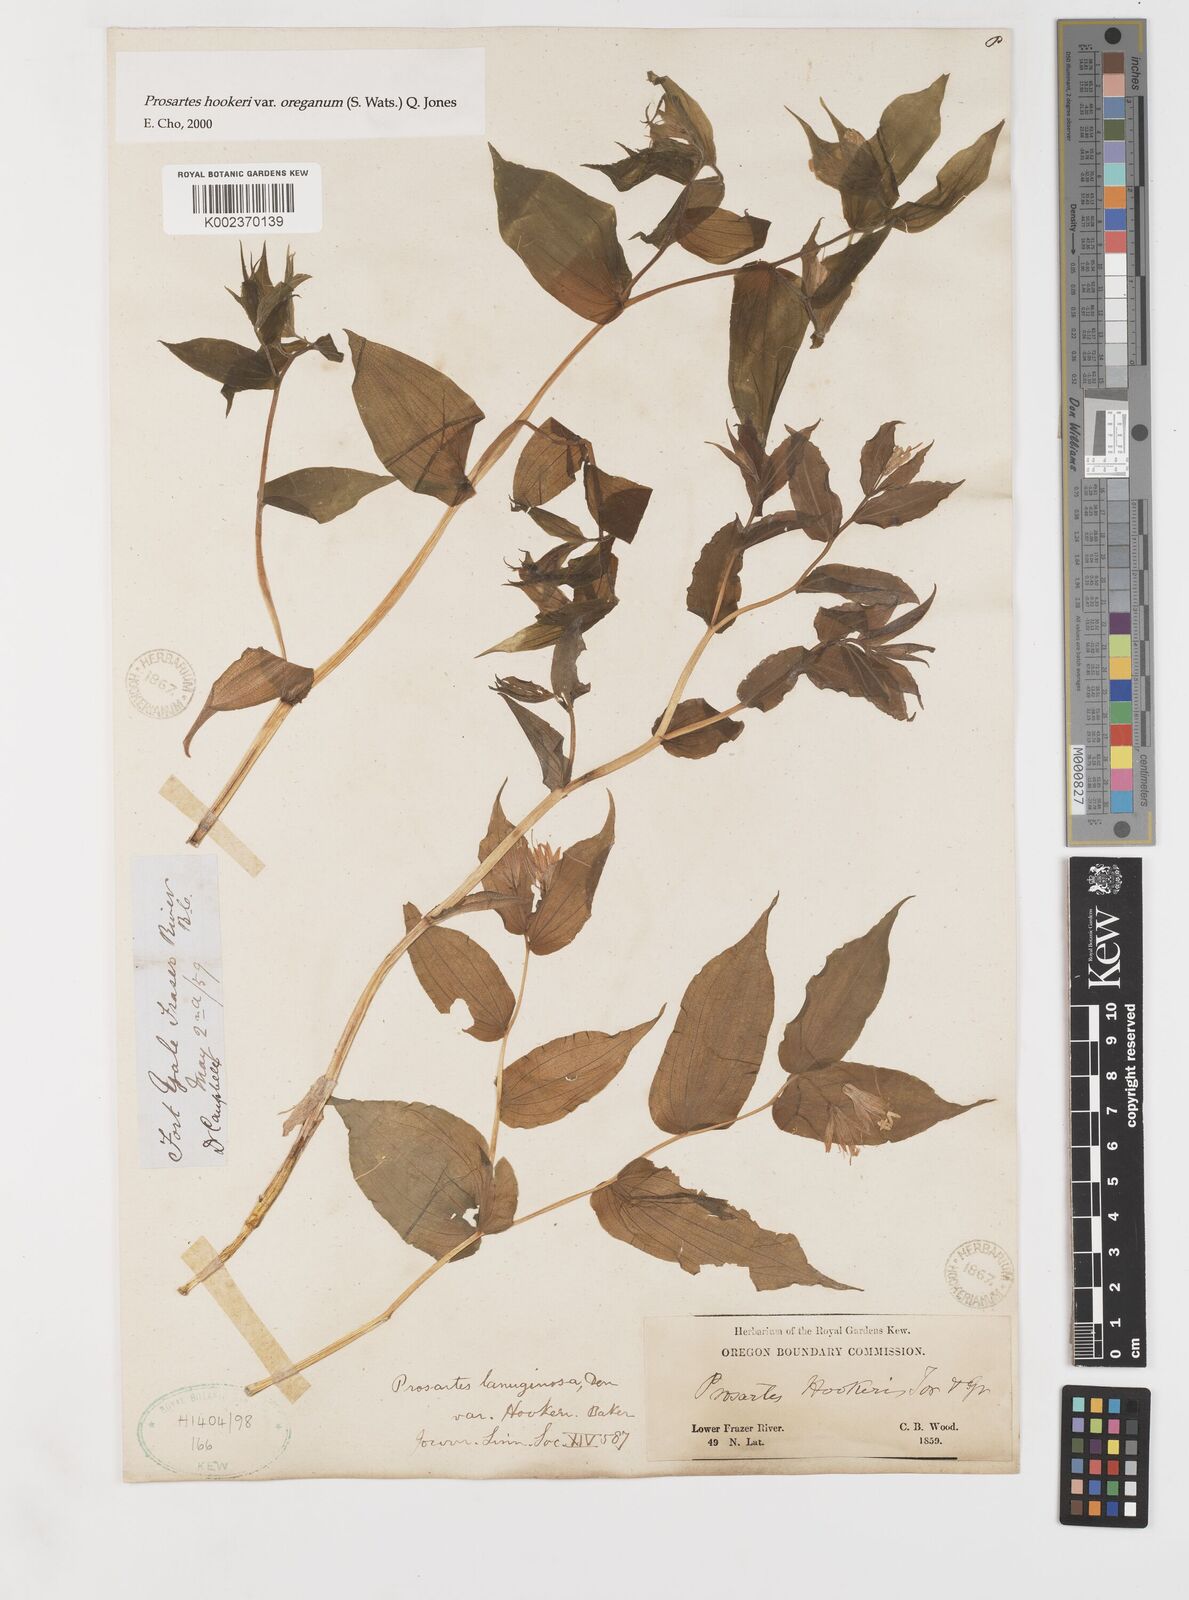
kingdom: Plantae
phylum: Tracheophyta
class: Liliopsida
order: Liliales
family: Liliaceae
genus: Prosartes
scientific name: Prosartes hookeri
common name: Fairy-bells
